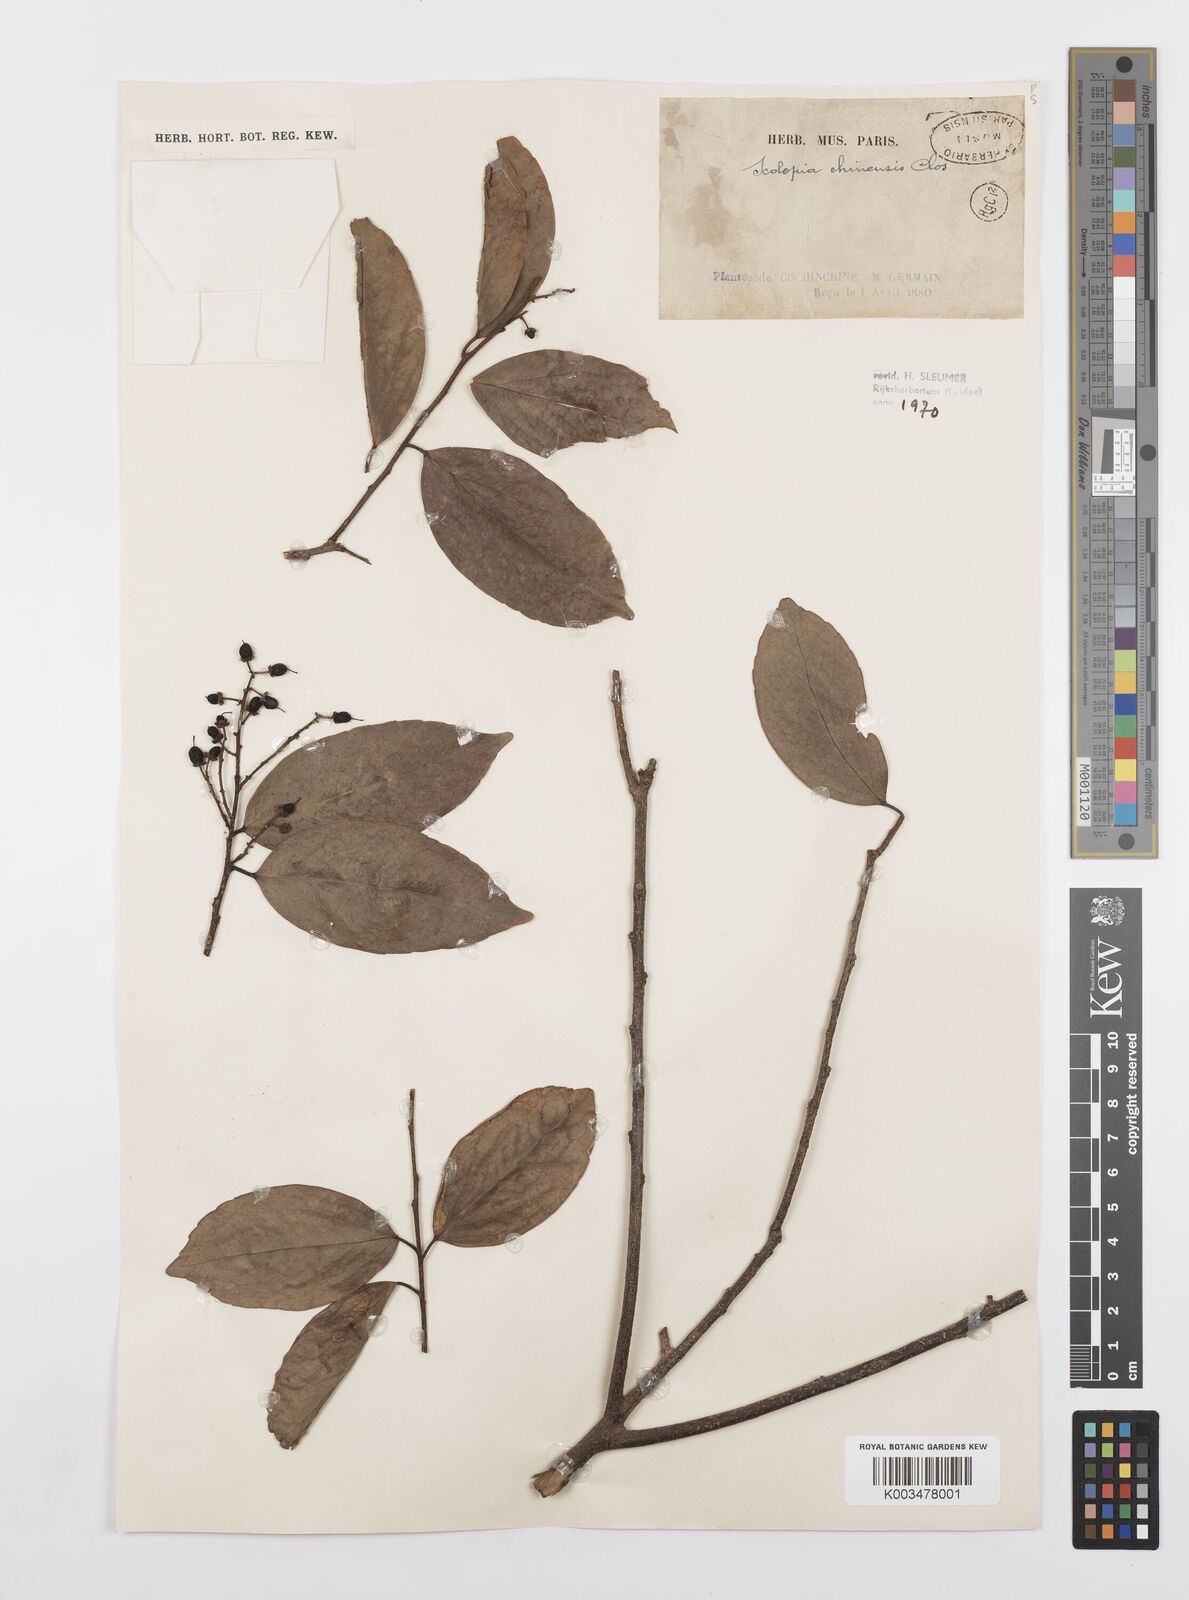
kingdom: Plantae
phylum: Tracheophyta
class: Magnoliopsida
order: Malpighiales
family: Salicaceae
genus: Scolopia
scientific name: Scolopia chinensis
